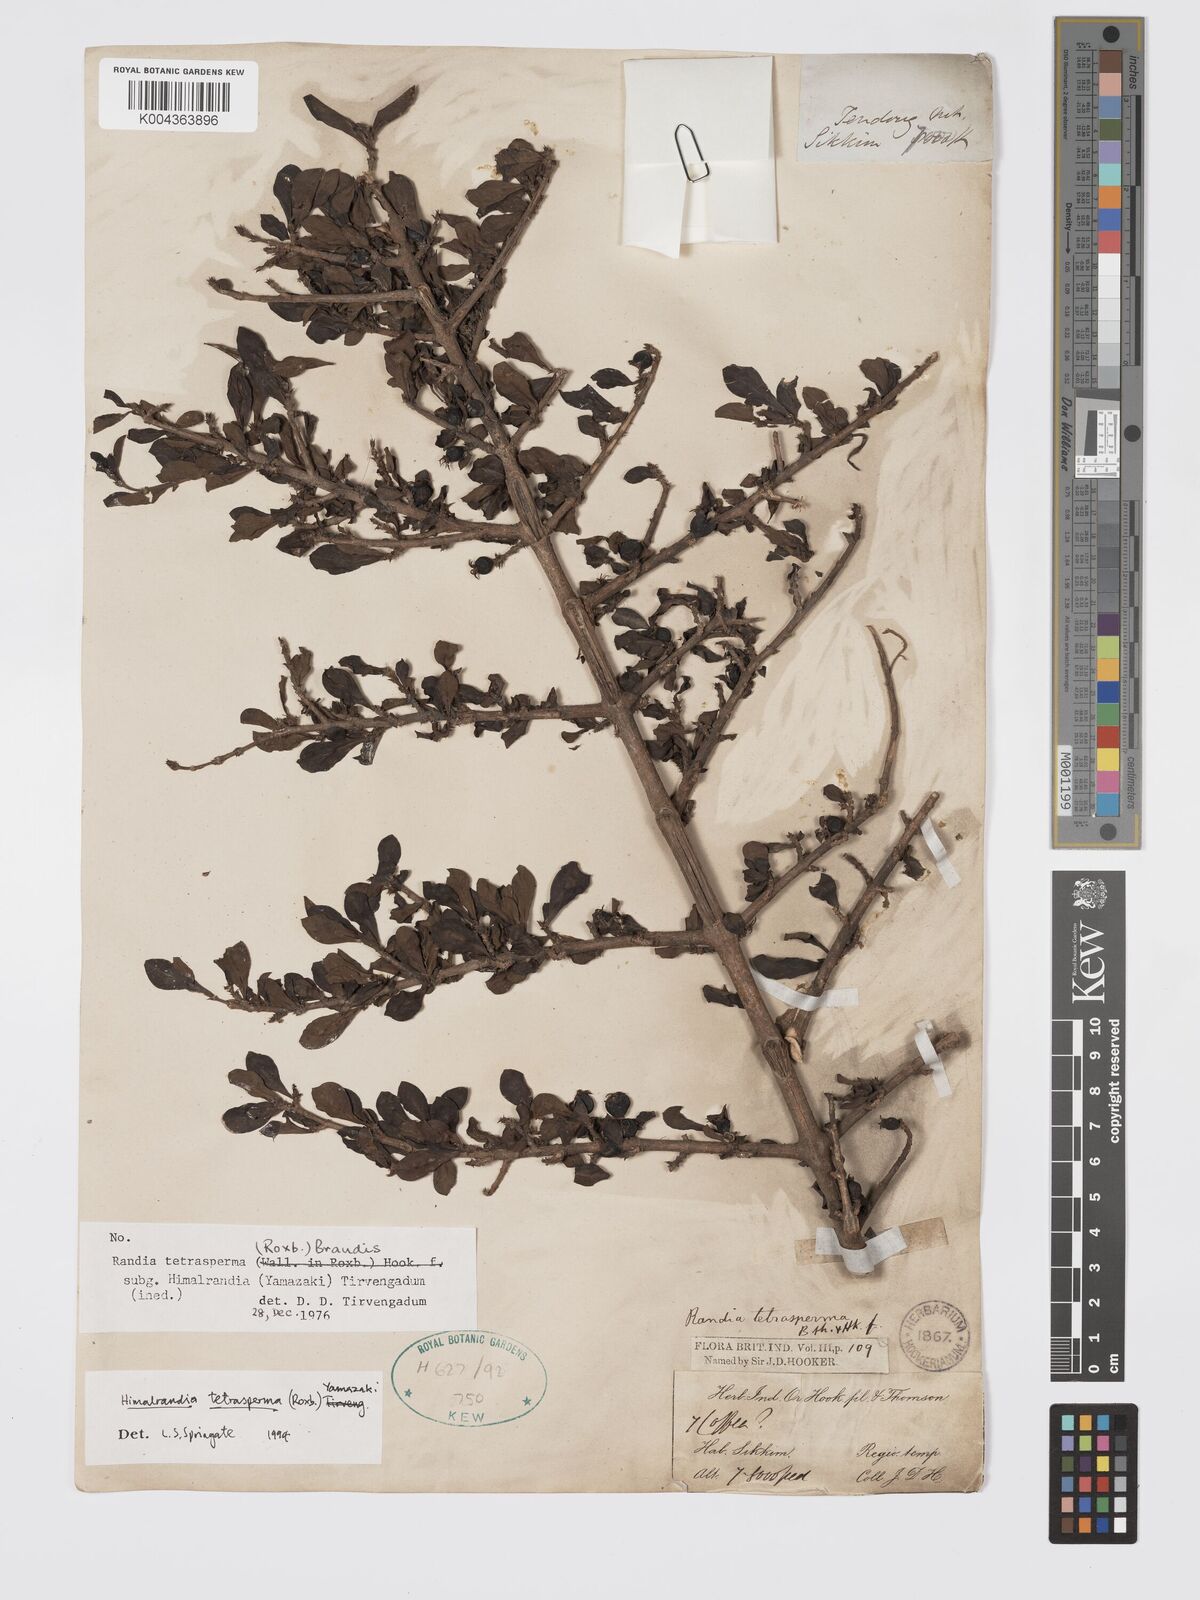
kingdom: Plantae
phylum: Tracheophyta
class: Magnoliopsida
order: Gentianales
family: Rubiaceae
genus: Himalrandia
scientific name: Himalrandia tetrasperma
